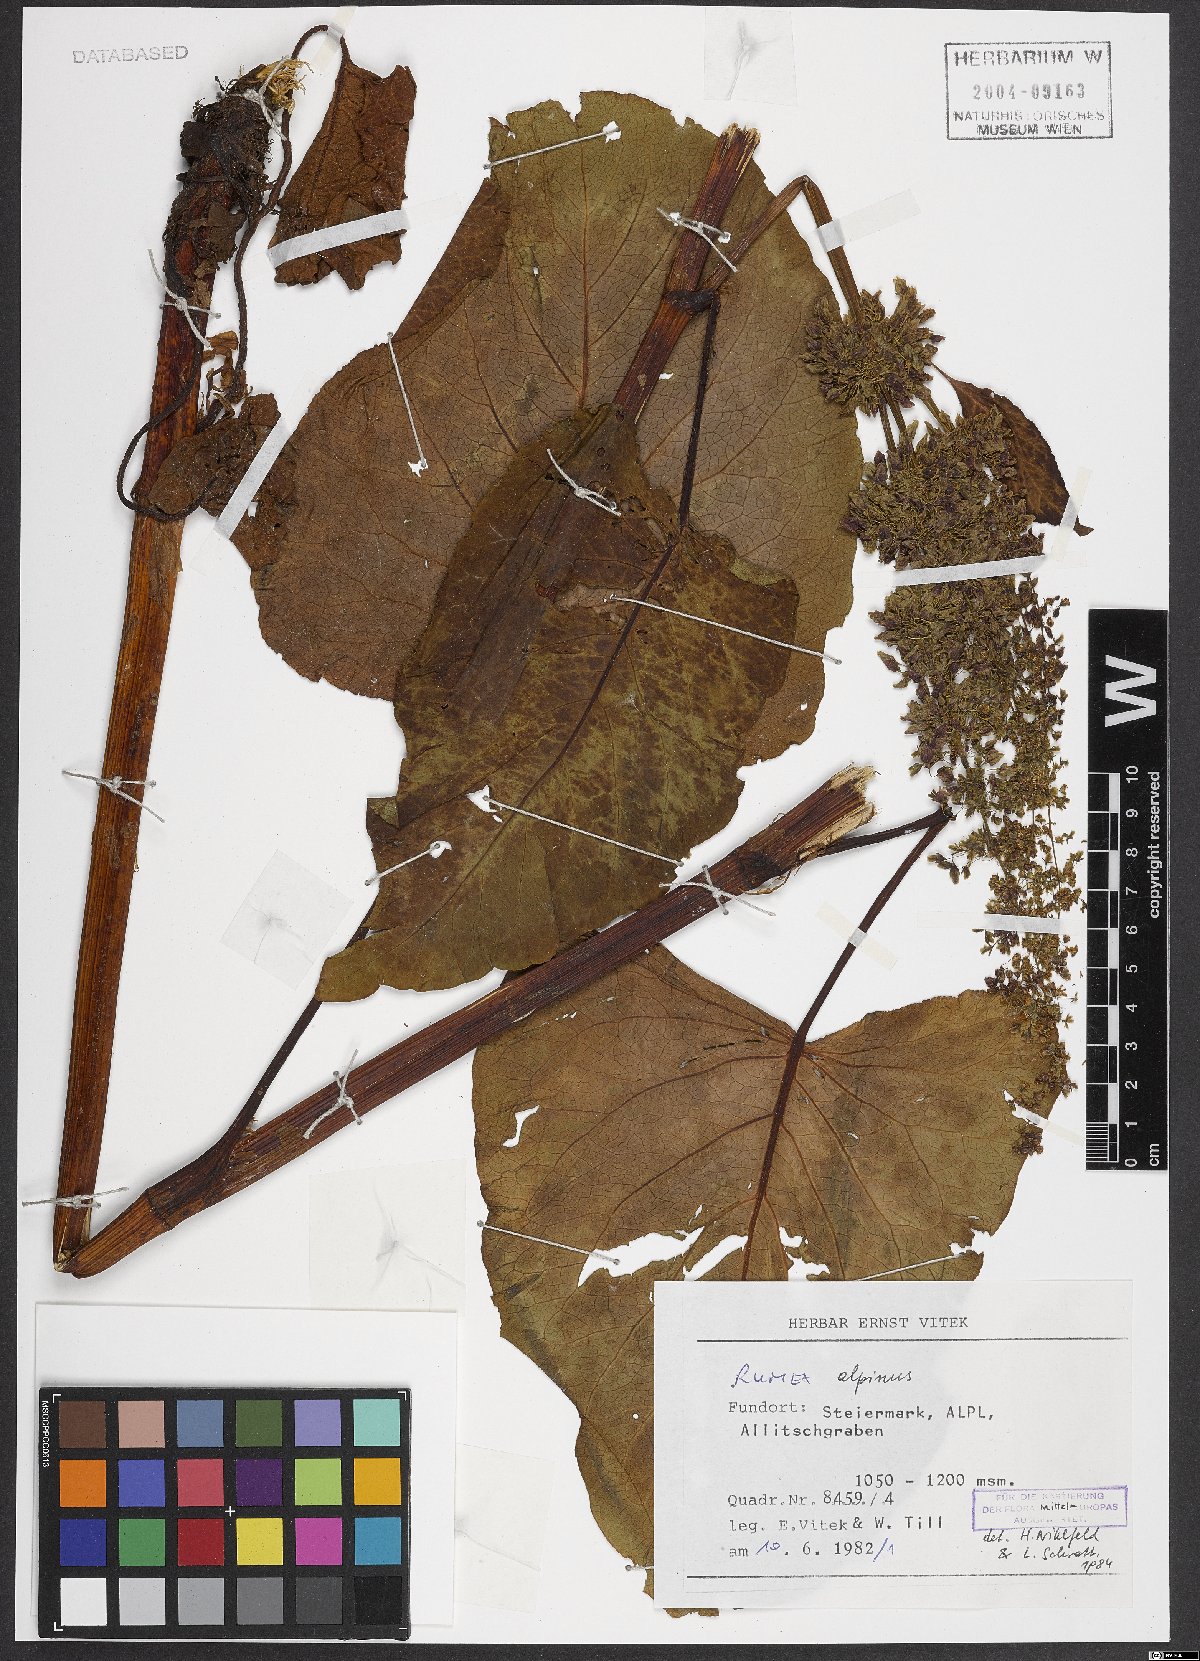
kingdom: Plantae
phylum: Tracheophyta
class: Magnoliopsida
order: Caryophyllales
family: Polygonaceae
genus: Rumex
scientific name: Rumex alpinus
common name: Alpine dock
